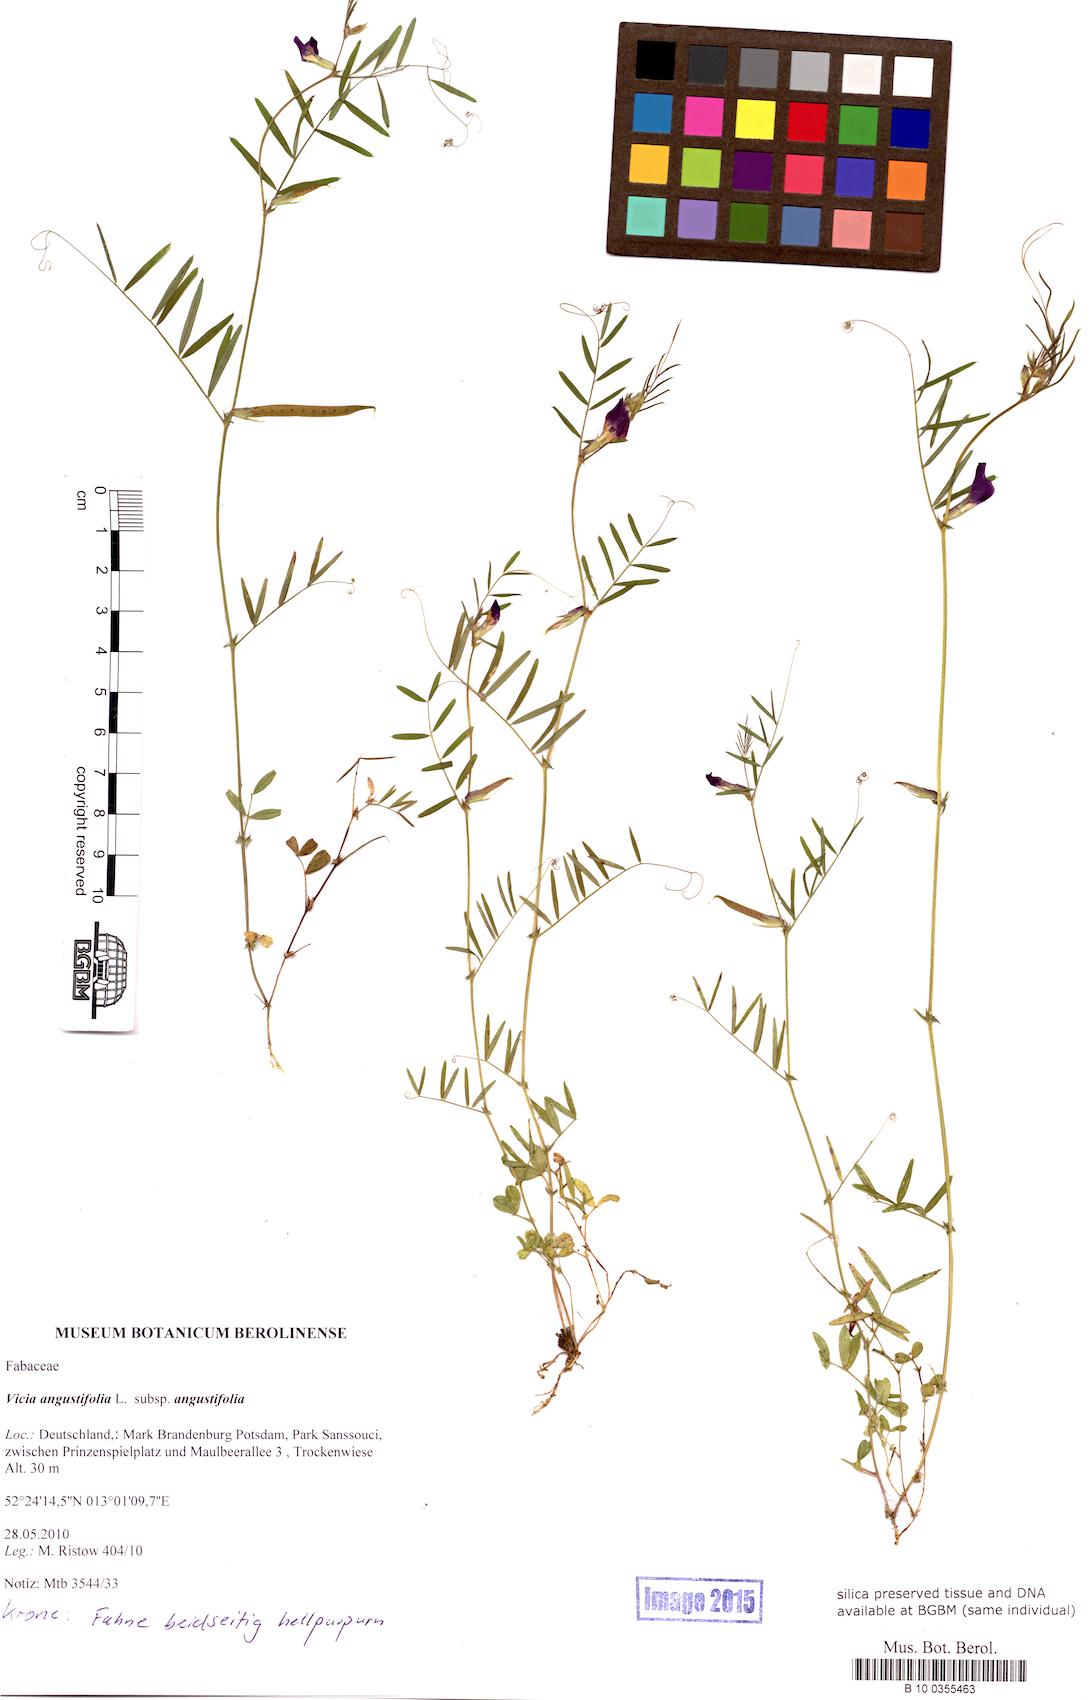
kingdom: Plantae
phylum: Tracheophyta
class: Magnoliopsida
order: Fabales
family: Fabaceae
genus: Vicia
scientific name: Vicia sativa
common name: Garden vetch
